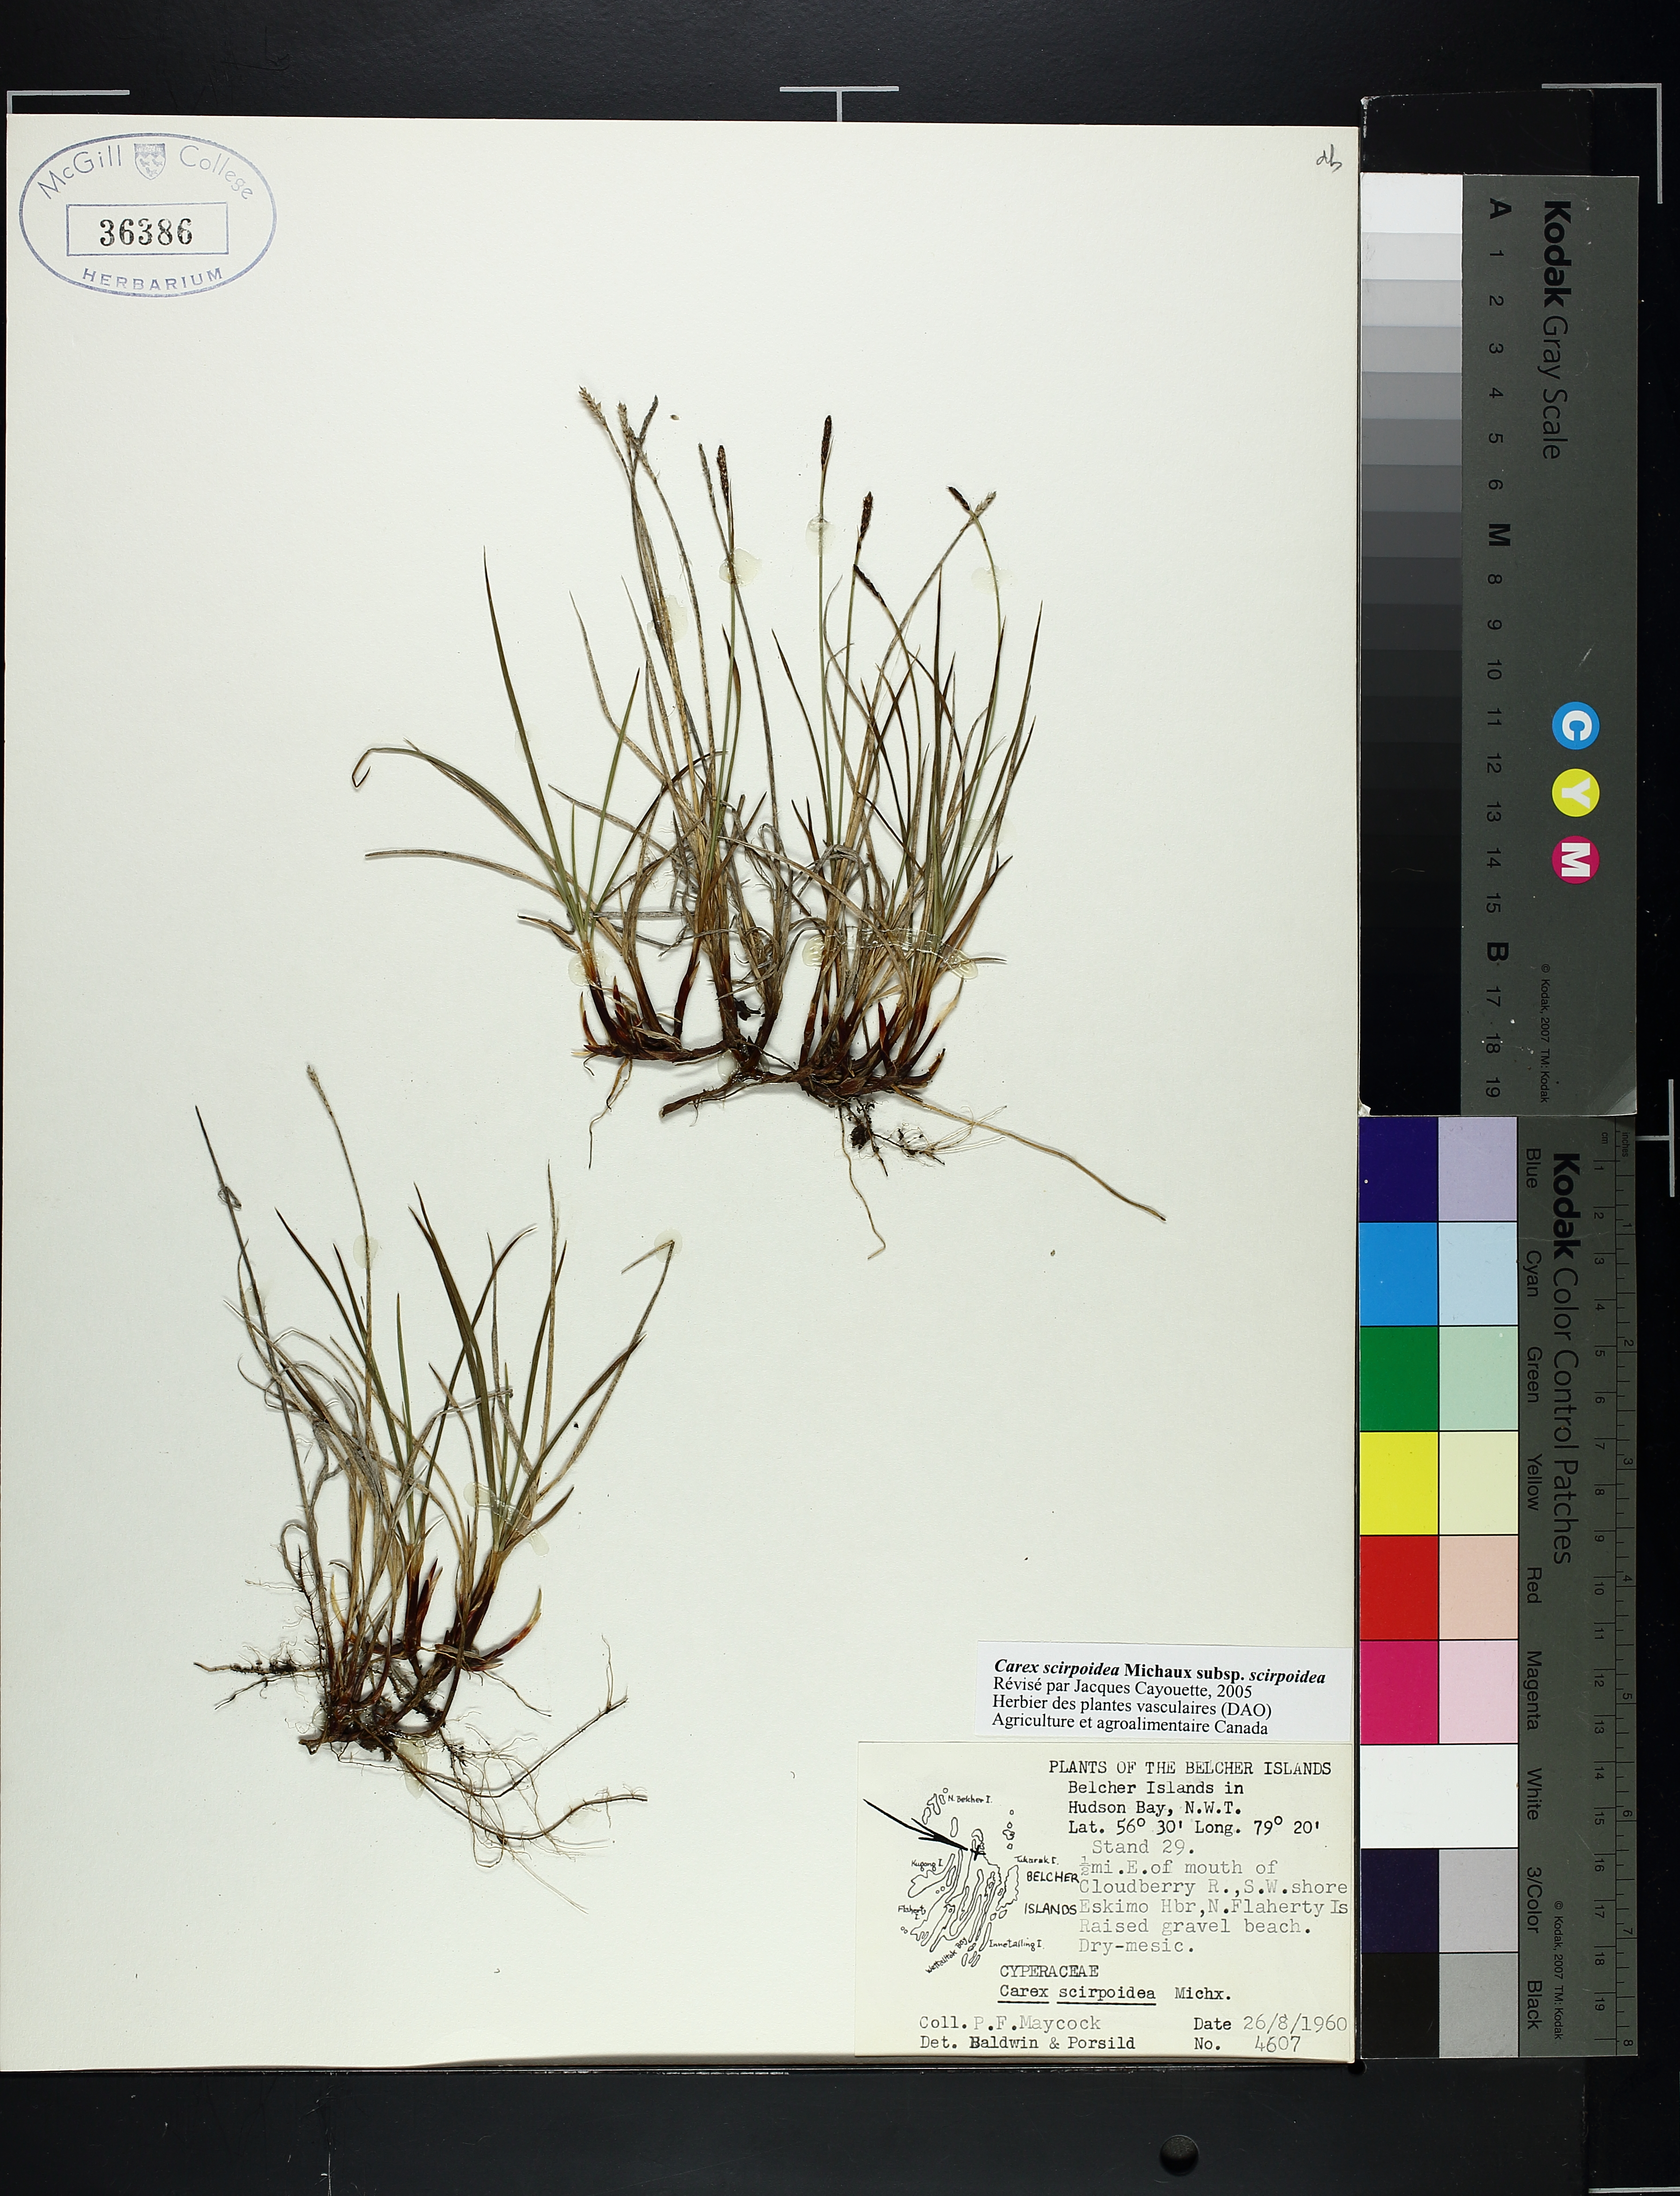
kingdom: Plantae
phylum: Tracheophyta
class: Liliopsida
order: Poales
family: Cyperaceae
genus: Carex
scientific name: Carex scirpoidea
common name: Canada single-spike sedge
